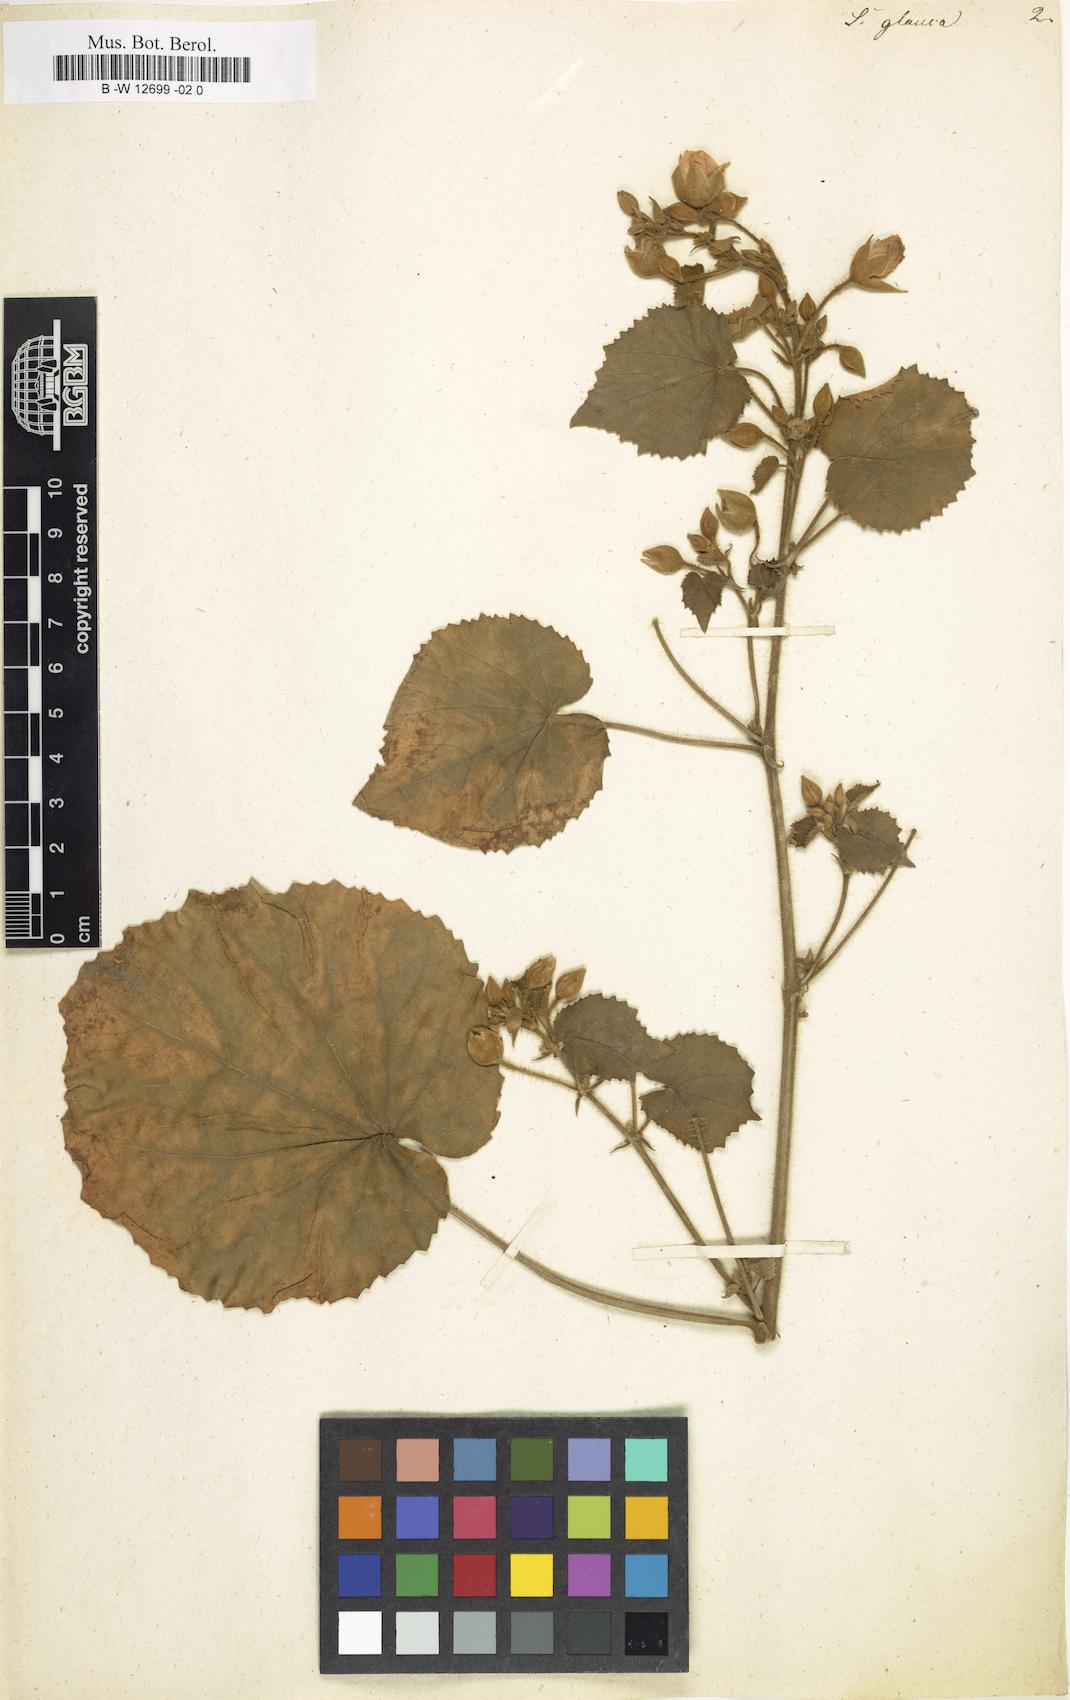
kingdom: Plantae
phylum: Tracheophyta
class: Magnoliopsida
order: Malvales
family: Malvaceae
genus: Abutilon
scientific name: Abutilon pannosum
